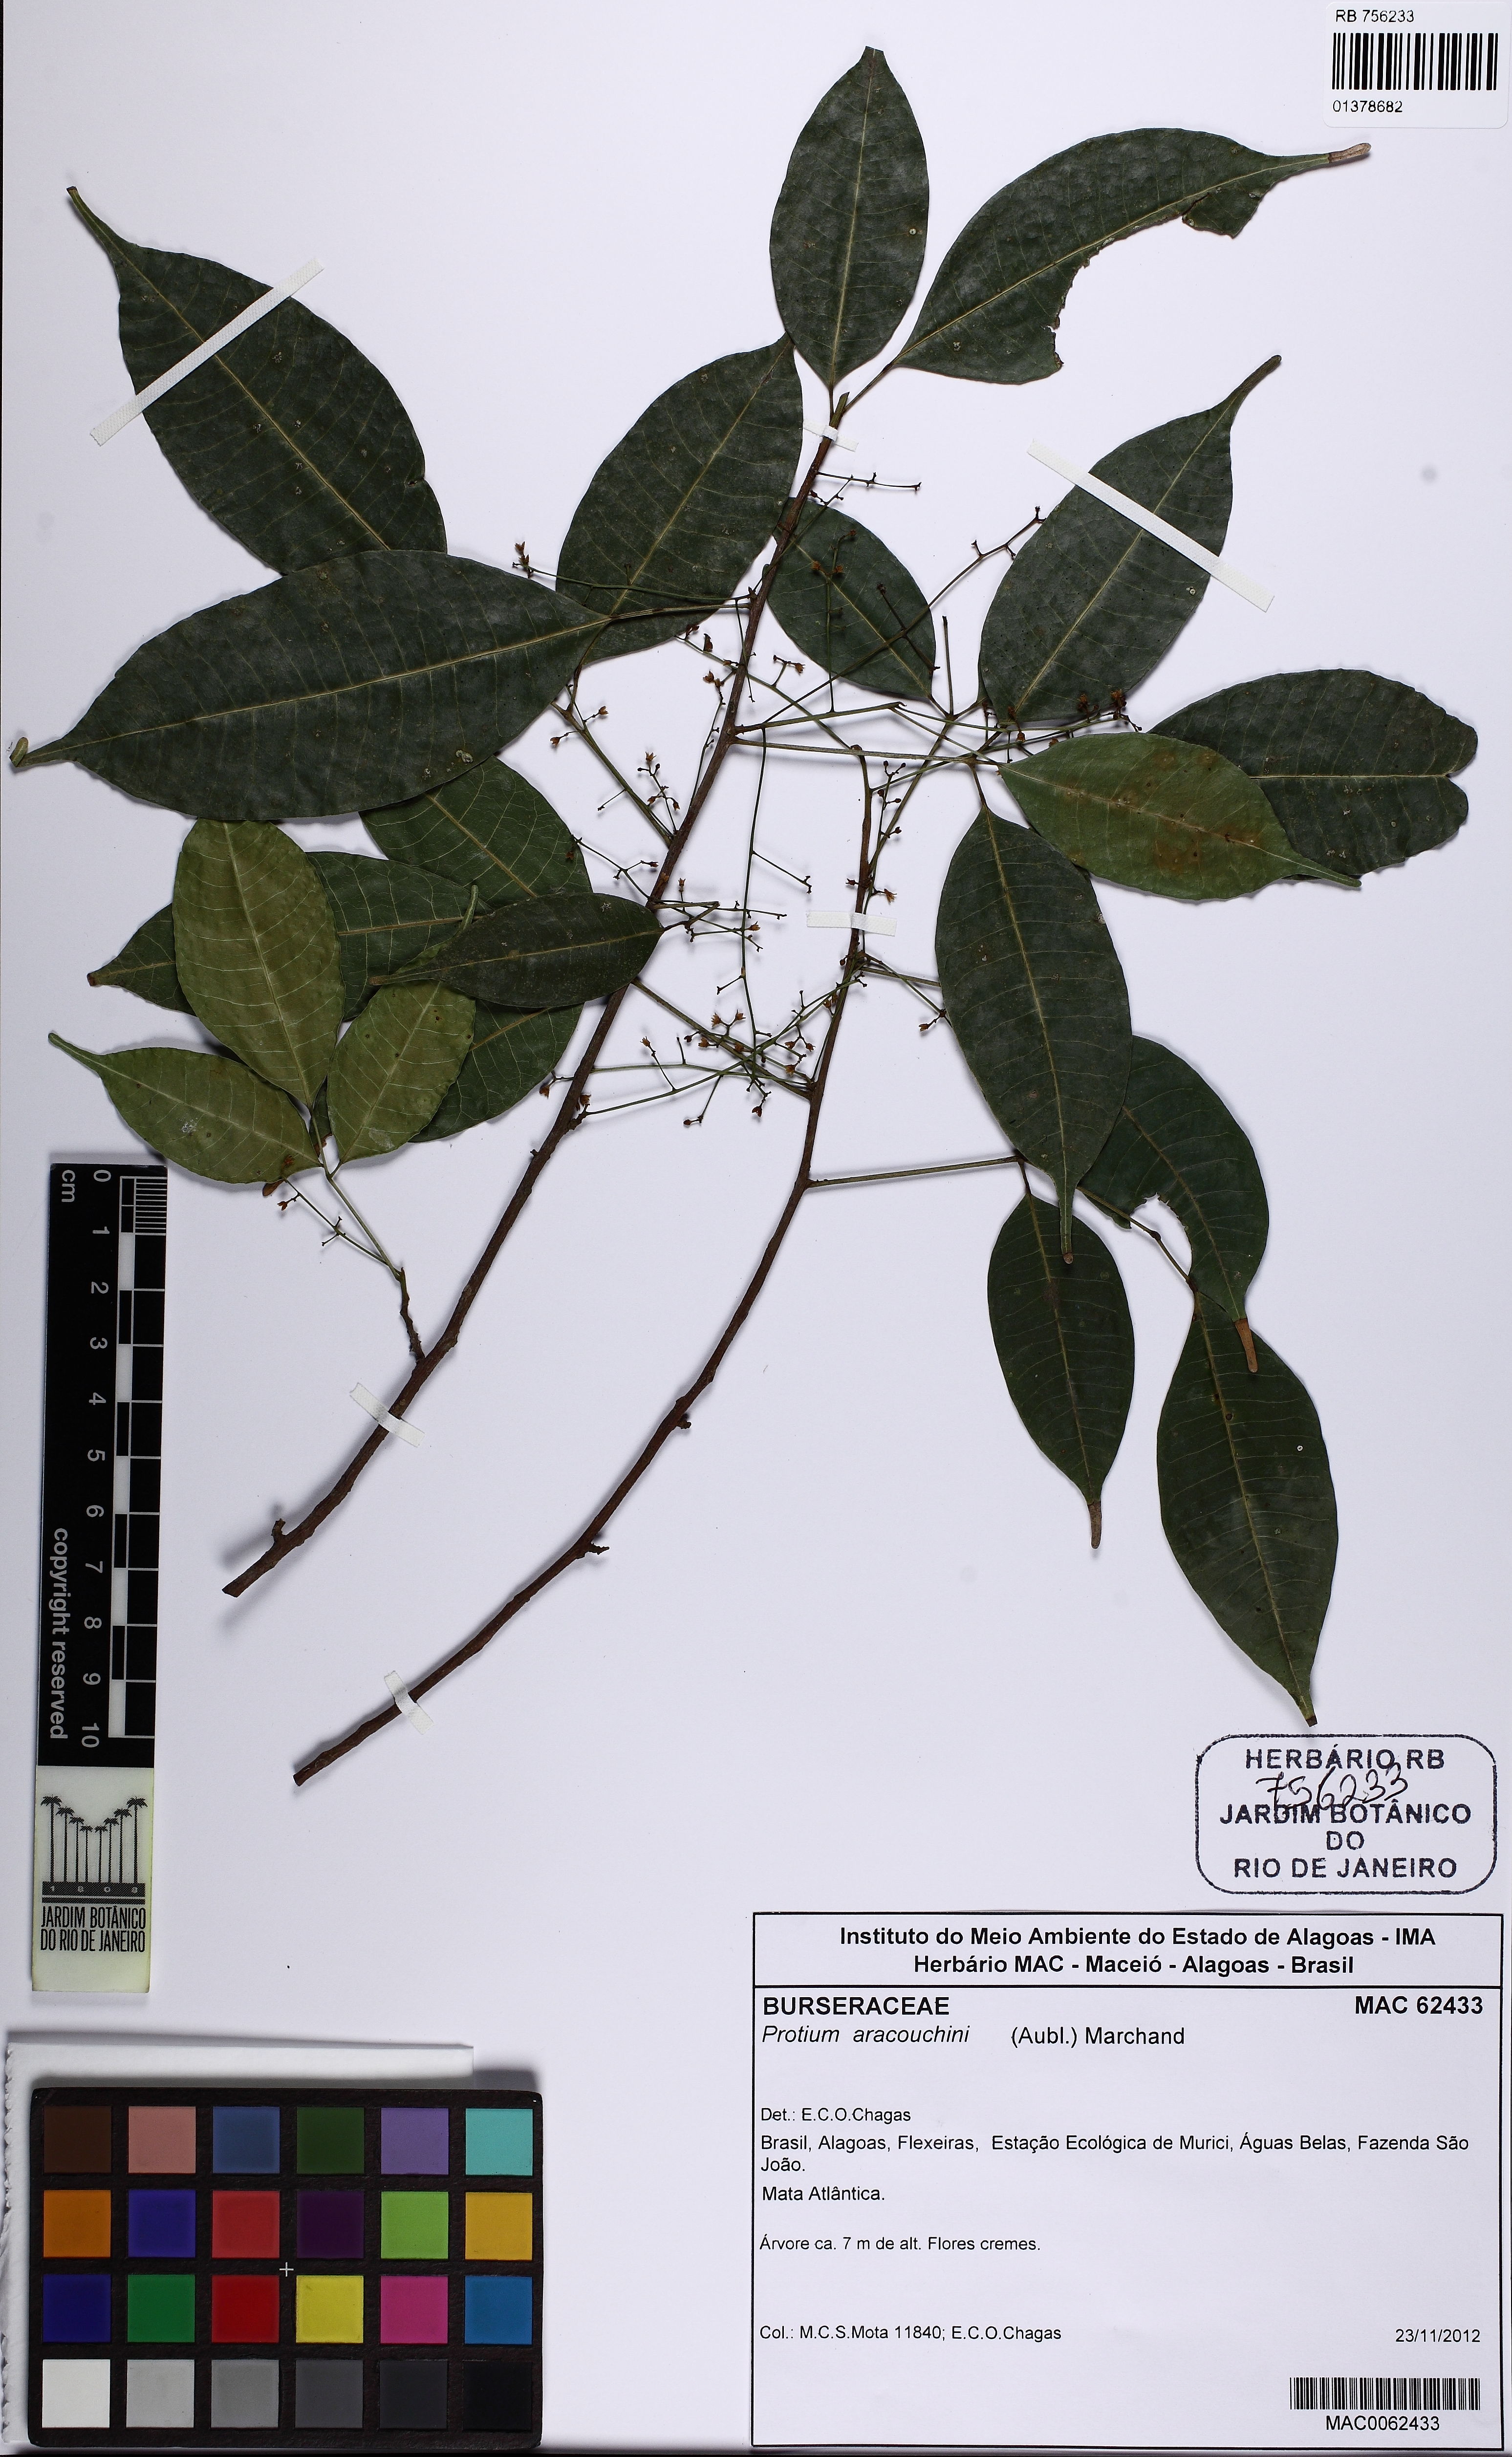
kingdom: Plantae
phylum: Tracheophyta
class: Magnoliopsida
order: Sapindales
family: Burseraceae
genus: Protium
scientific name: Protium aracouchini
